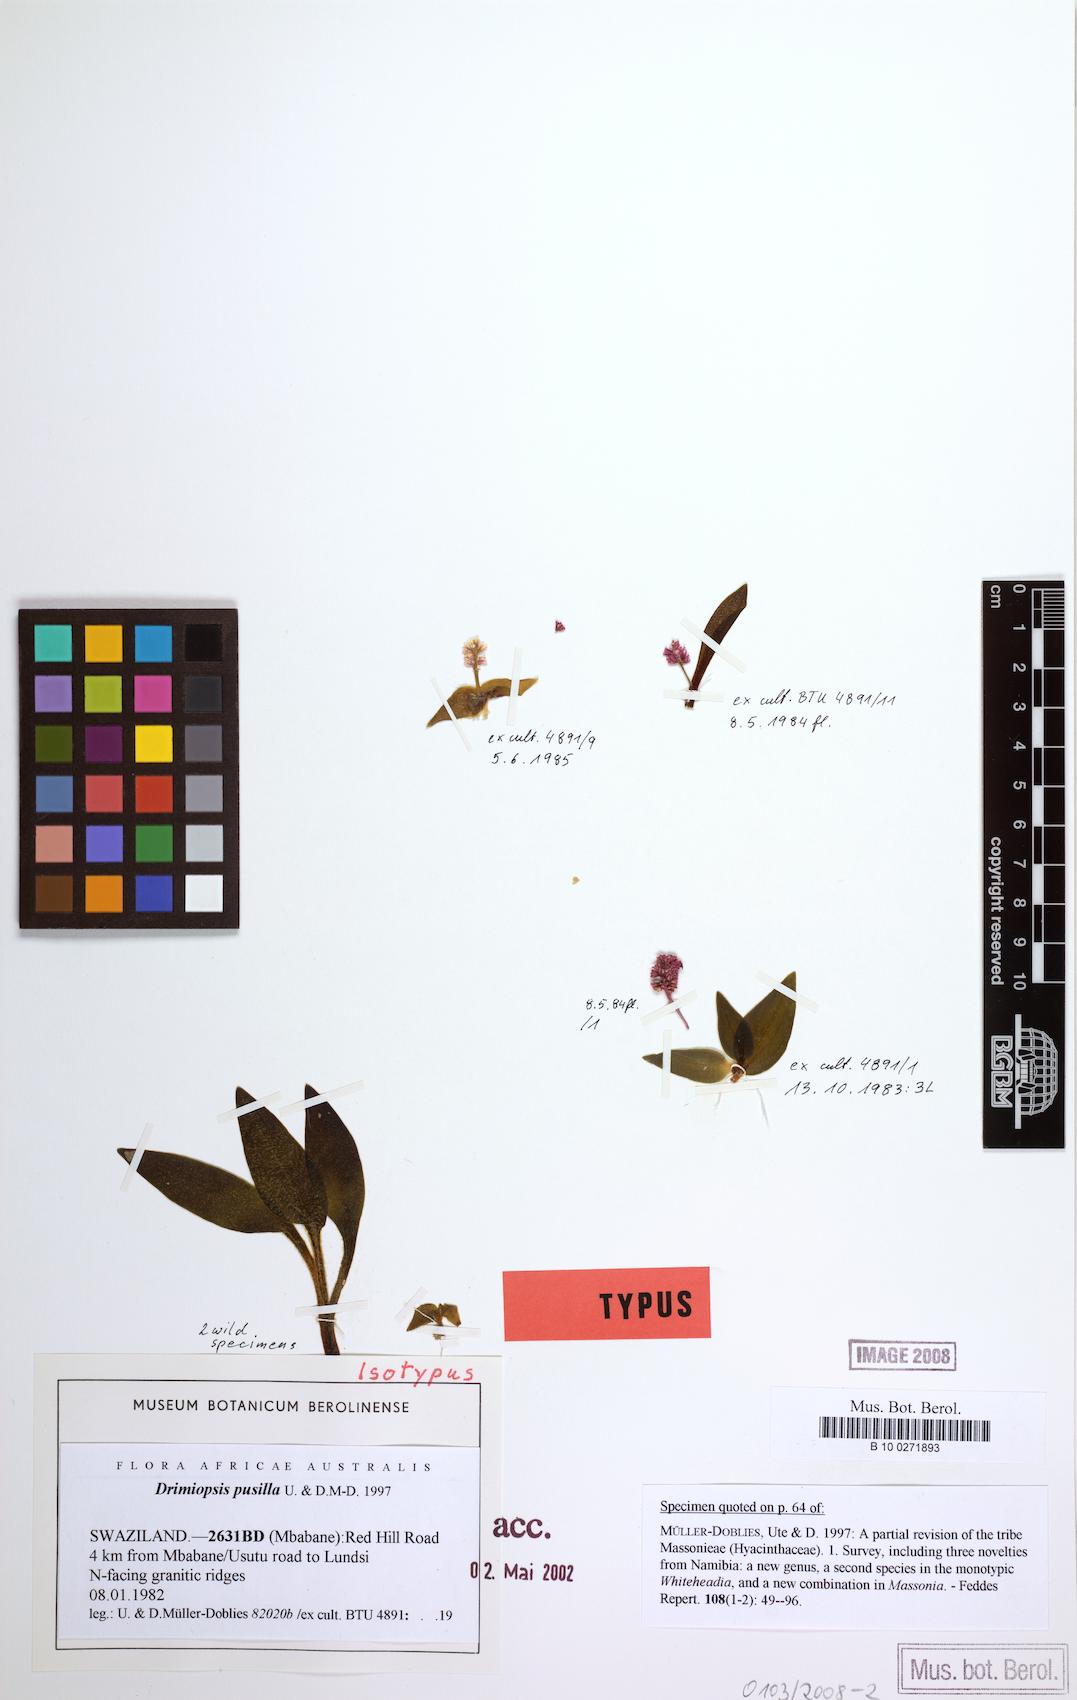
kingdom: Plantae
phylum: Tracheophyta
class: Liliopsida
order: Asparagales
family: Asparagaceae
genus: Drimiopsis
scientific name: Drimiopsis pusilla
